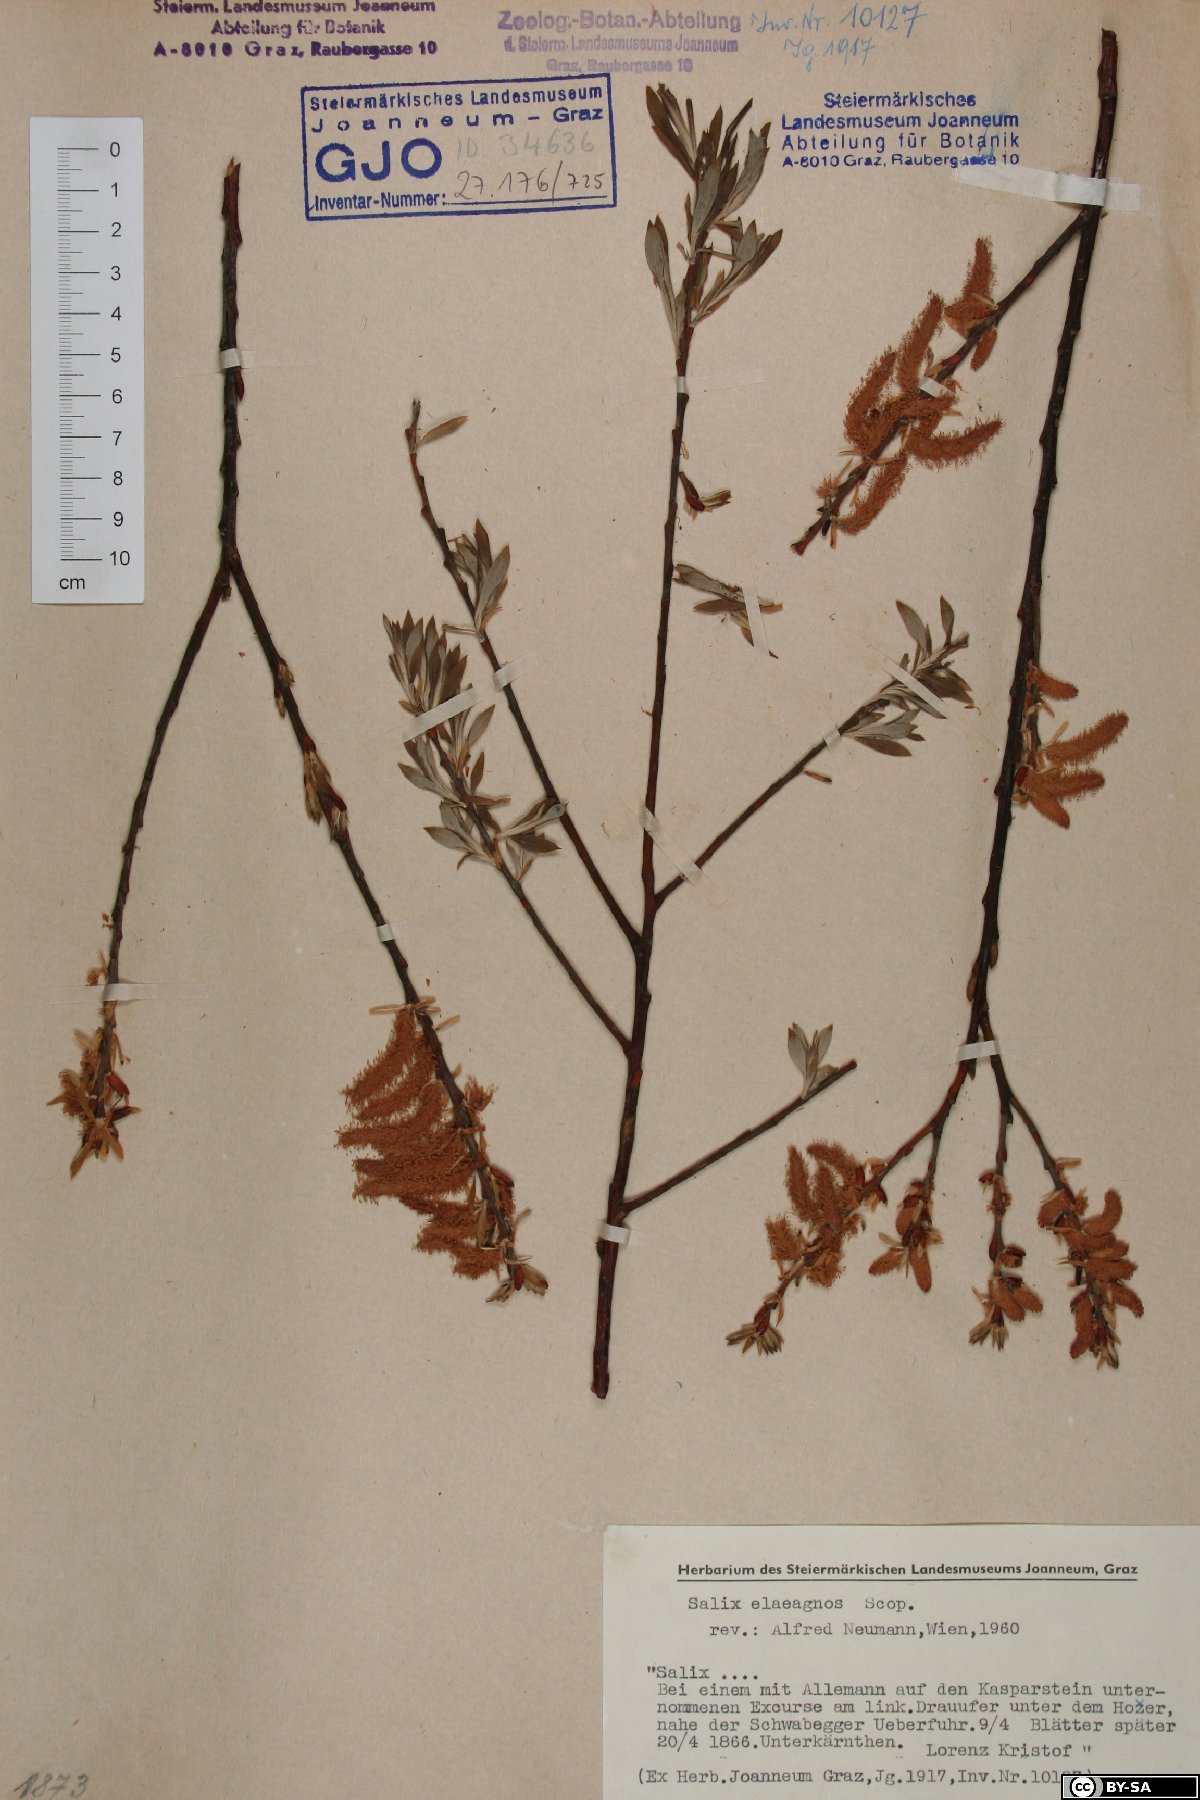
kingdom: Plantae
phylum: Tracheophyta
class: Magnoliopsida
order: Malpighiales
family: Salicaceae
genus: Salix
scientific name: Salix eleagnos
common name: Elaeagnus willow
